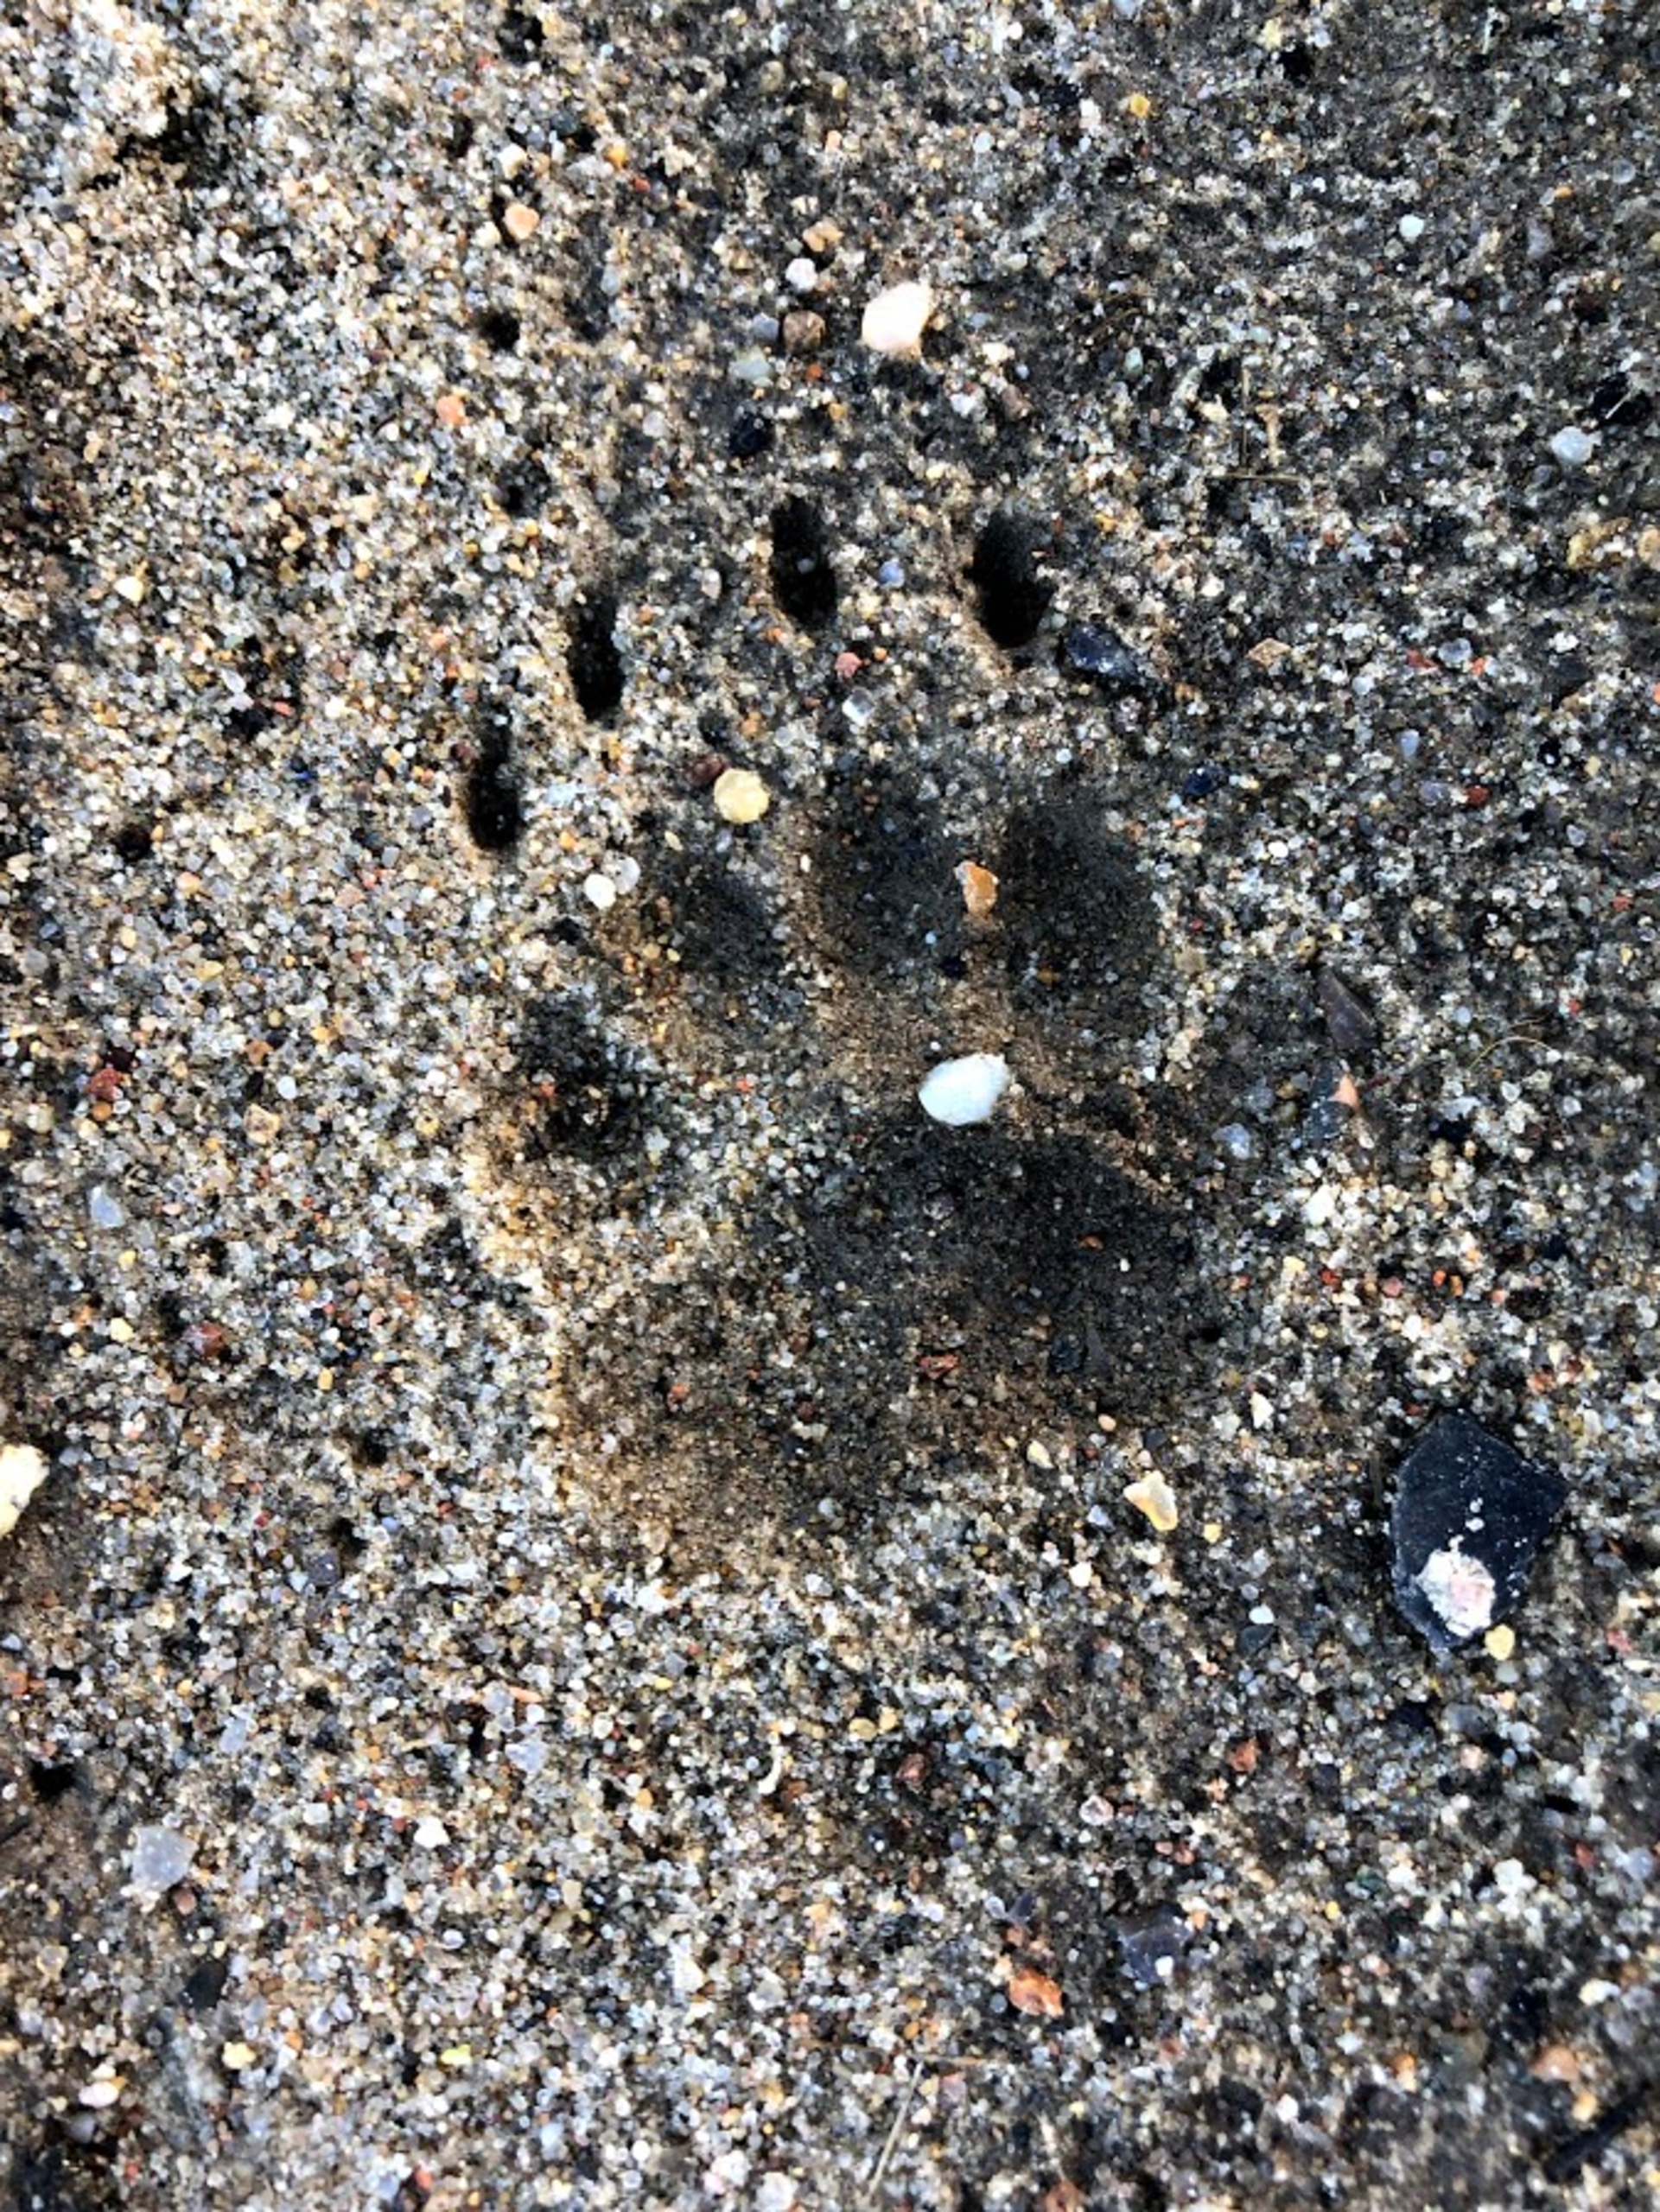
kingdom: Animalia
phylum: Chordata
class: Mammalia
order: Carnivora
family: Mustelidae
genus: Meles
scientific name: Meles meles
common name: Grævling
